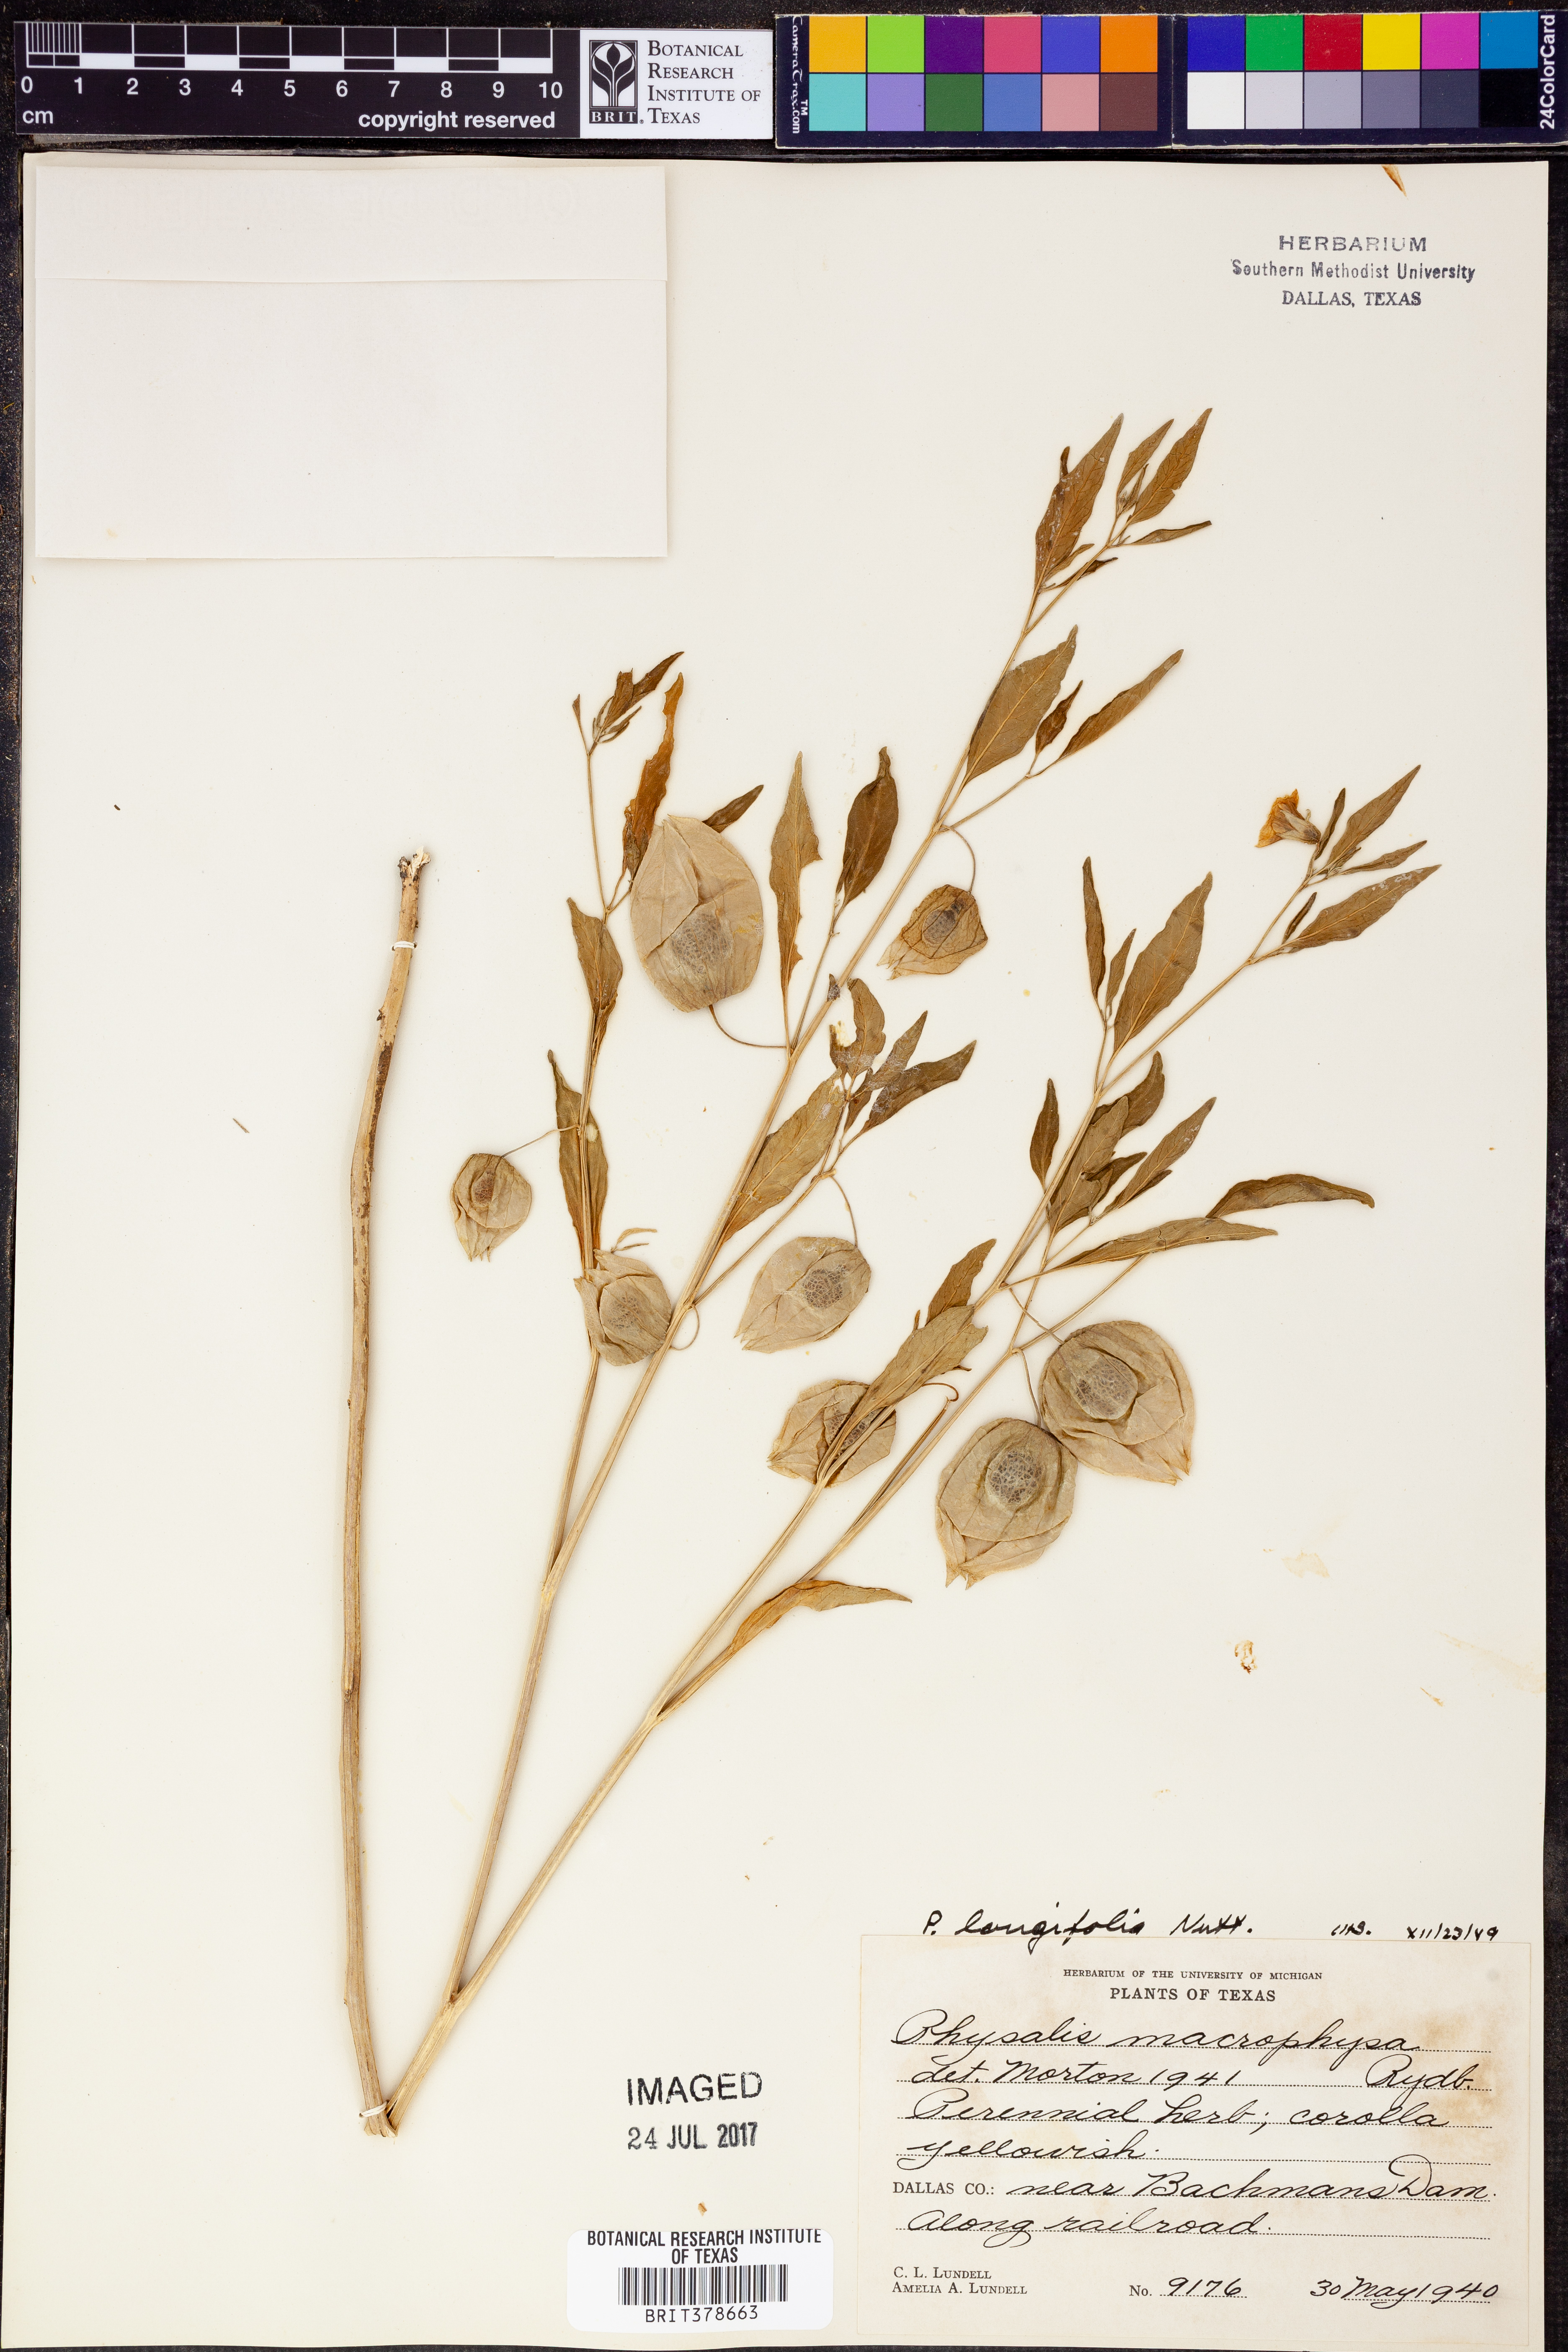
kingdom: Plantae
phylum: Tracheophyta
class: Magnoliopsida
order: Solanales
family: Solanaceae
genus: Physalis
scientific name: Physalis longifolia
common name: Common ground-cherry
